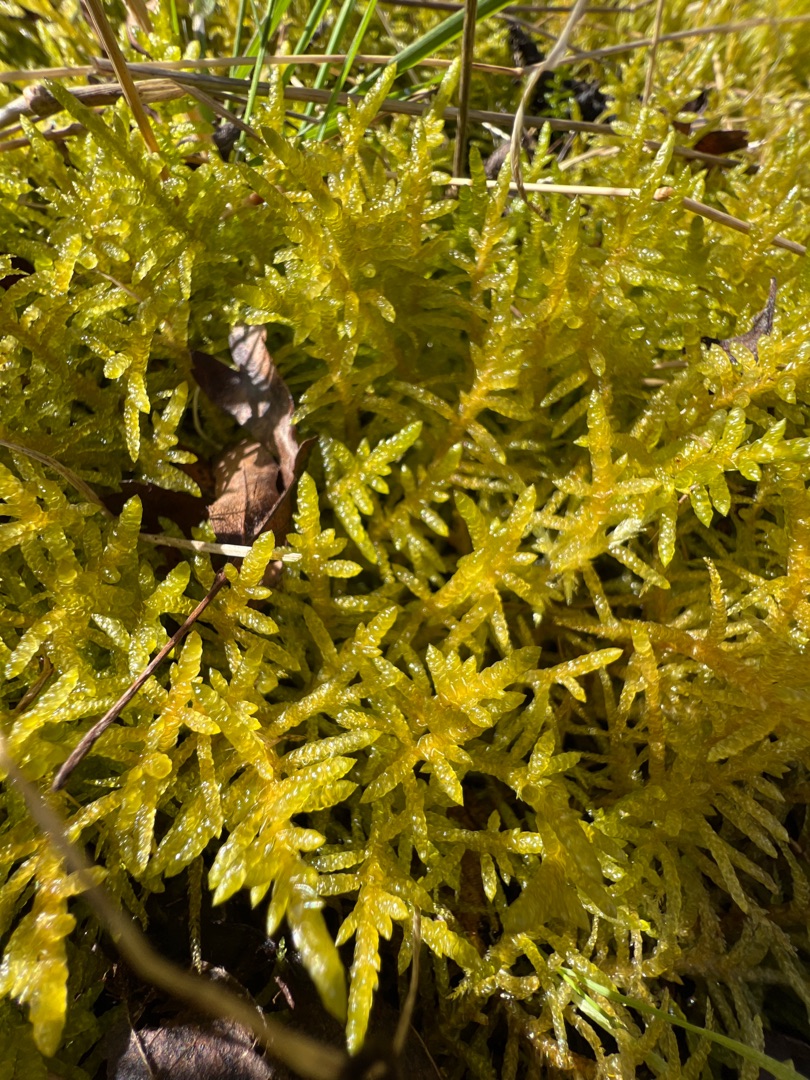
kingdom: Plantae
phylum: Bryophyta
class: Bryopsida
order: Hypnales
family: Brachytheciaceae
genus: Pseudoscleropodium
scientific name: Pseudoscleropodium purum
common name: Hulbladet fedtmos
